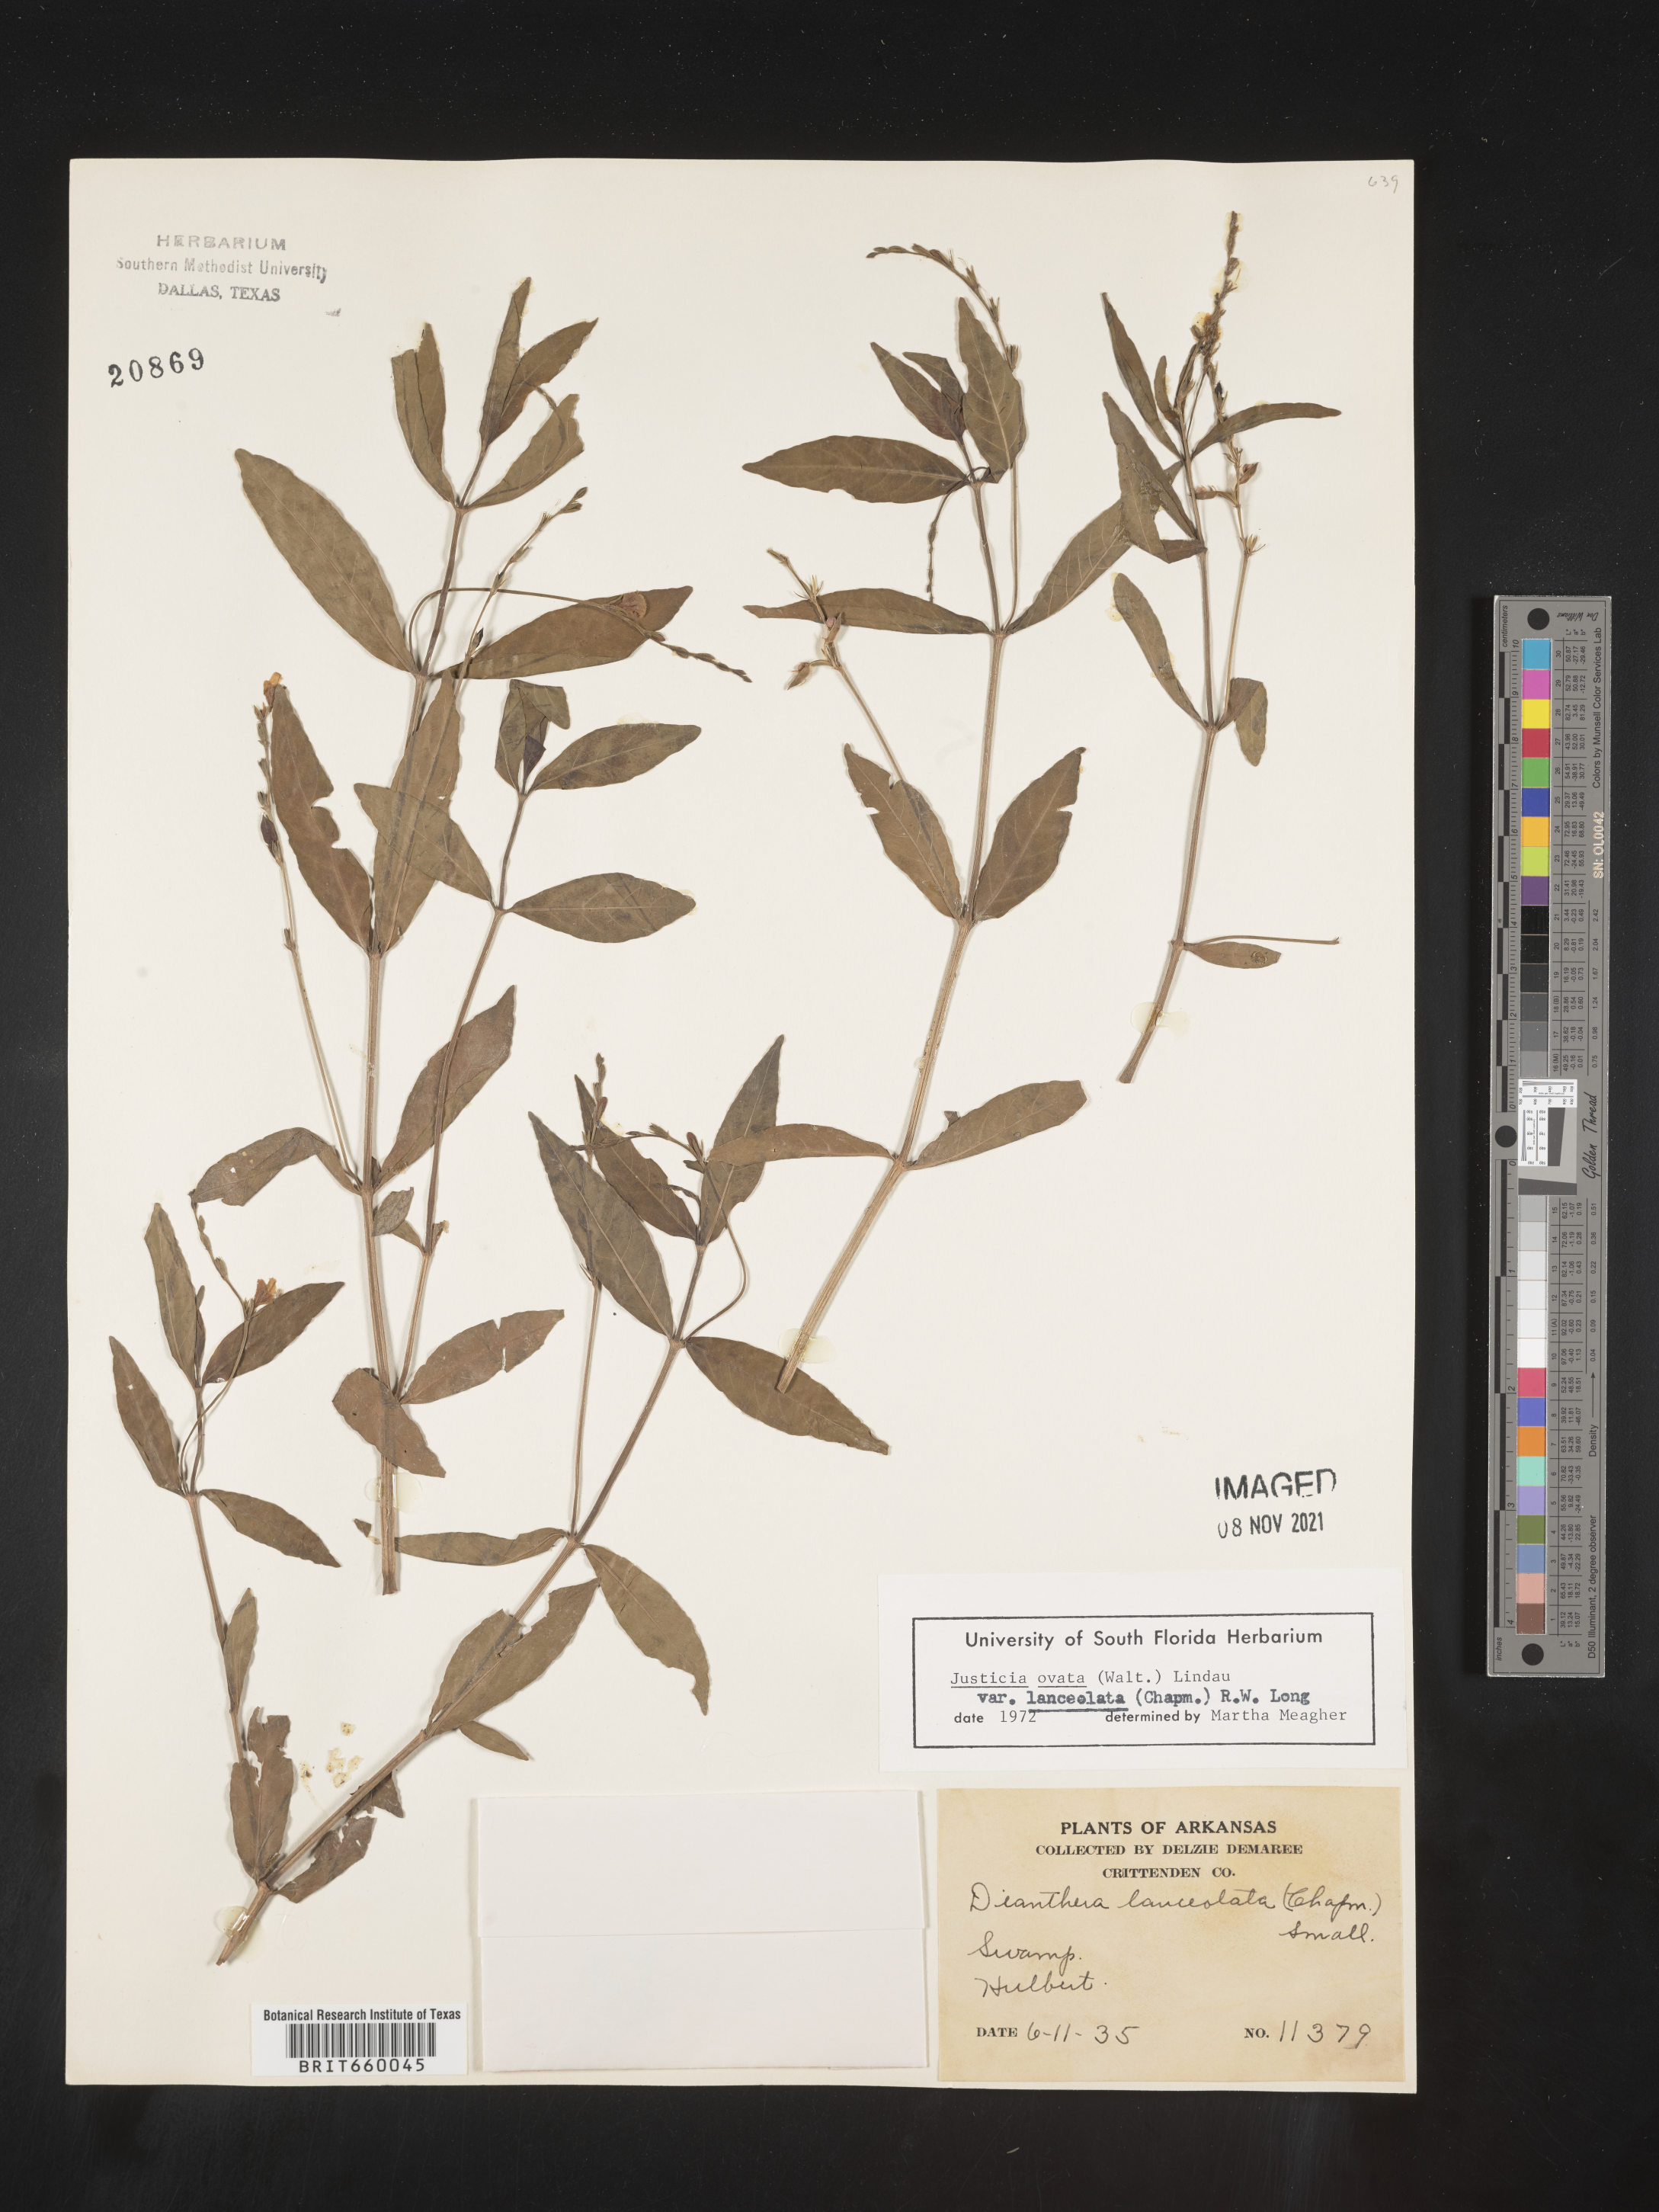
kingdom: Plantae
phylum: Tracheophyta
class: Magnoliopsida
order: Lamiales
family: Acanthaceae
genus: Justicia
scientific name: Justicia lanceolata
